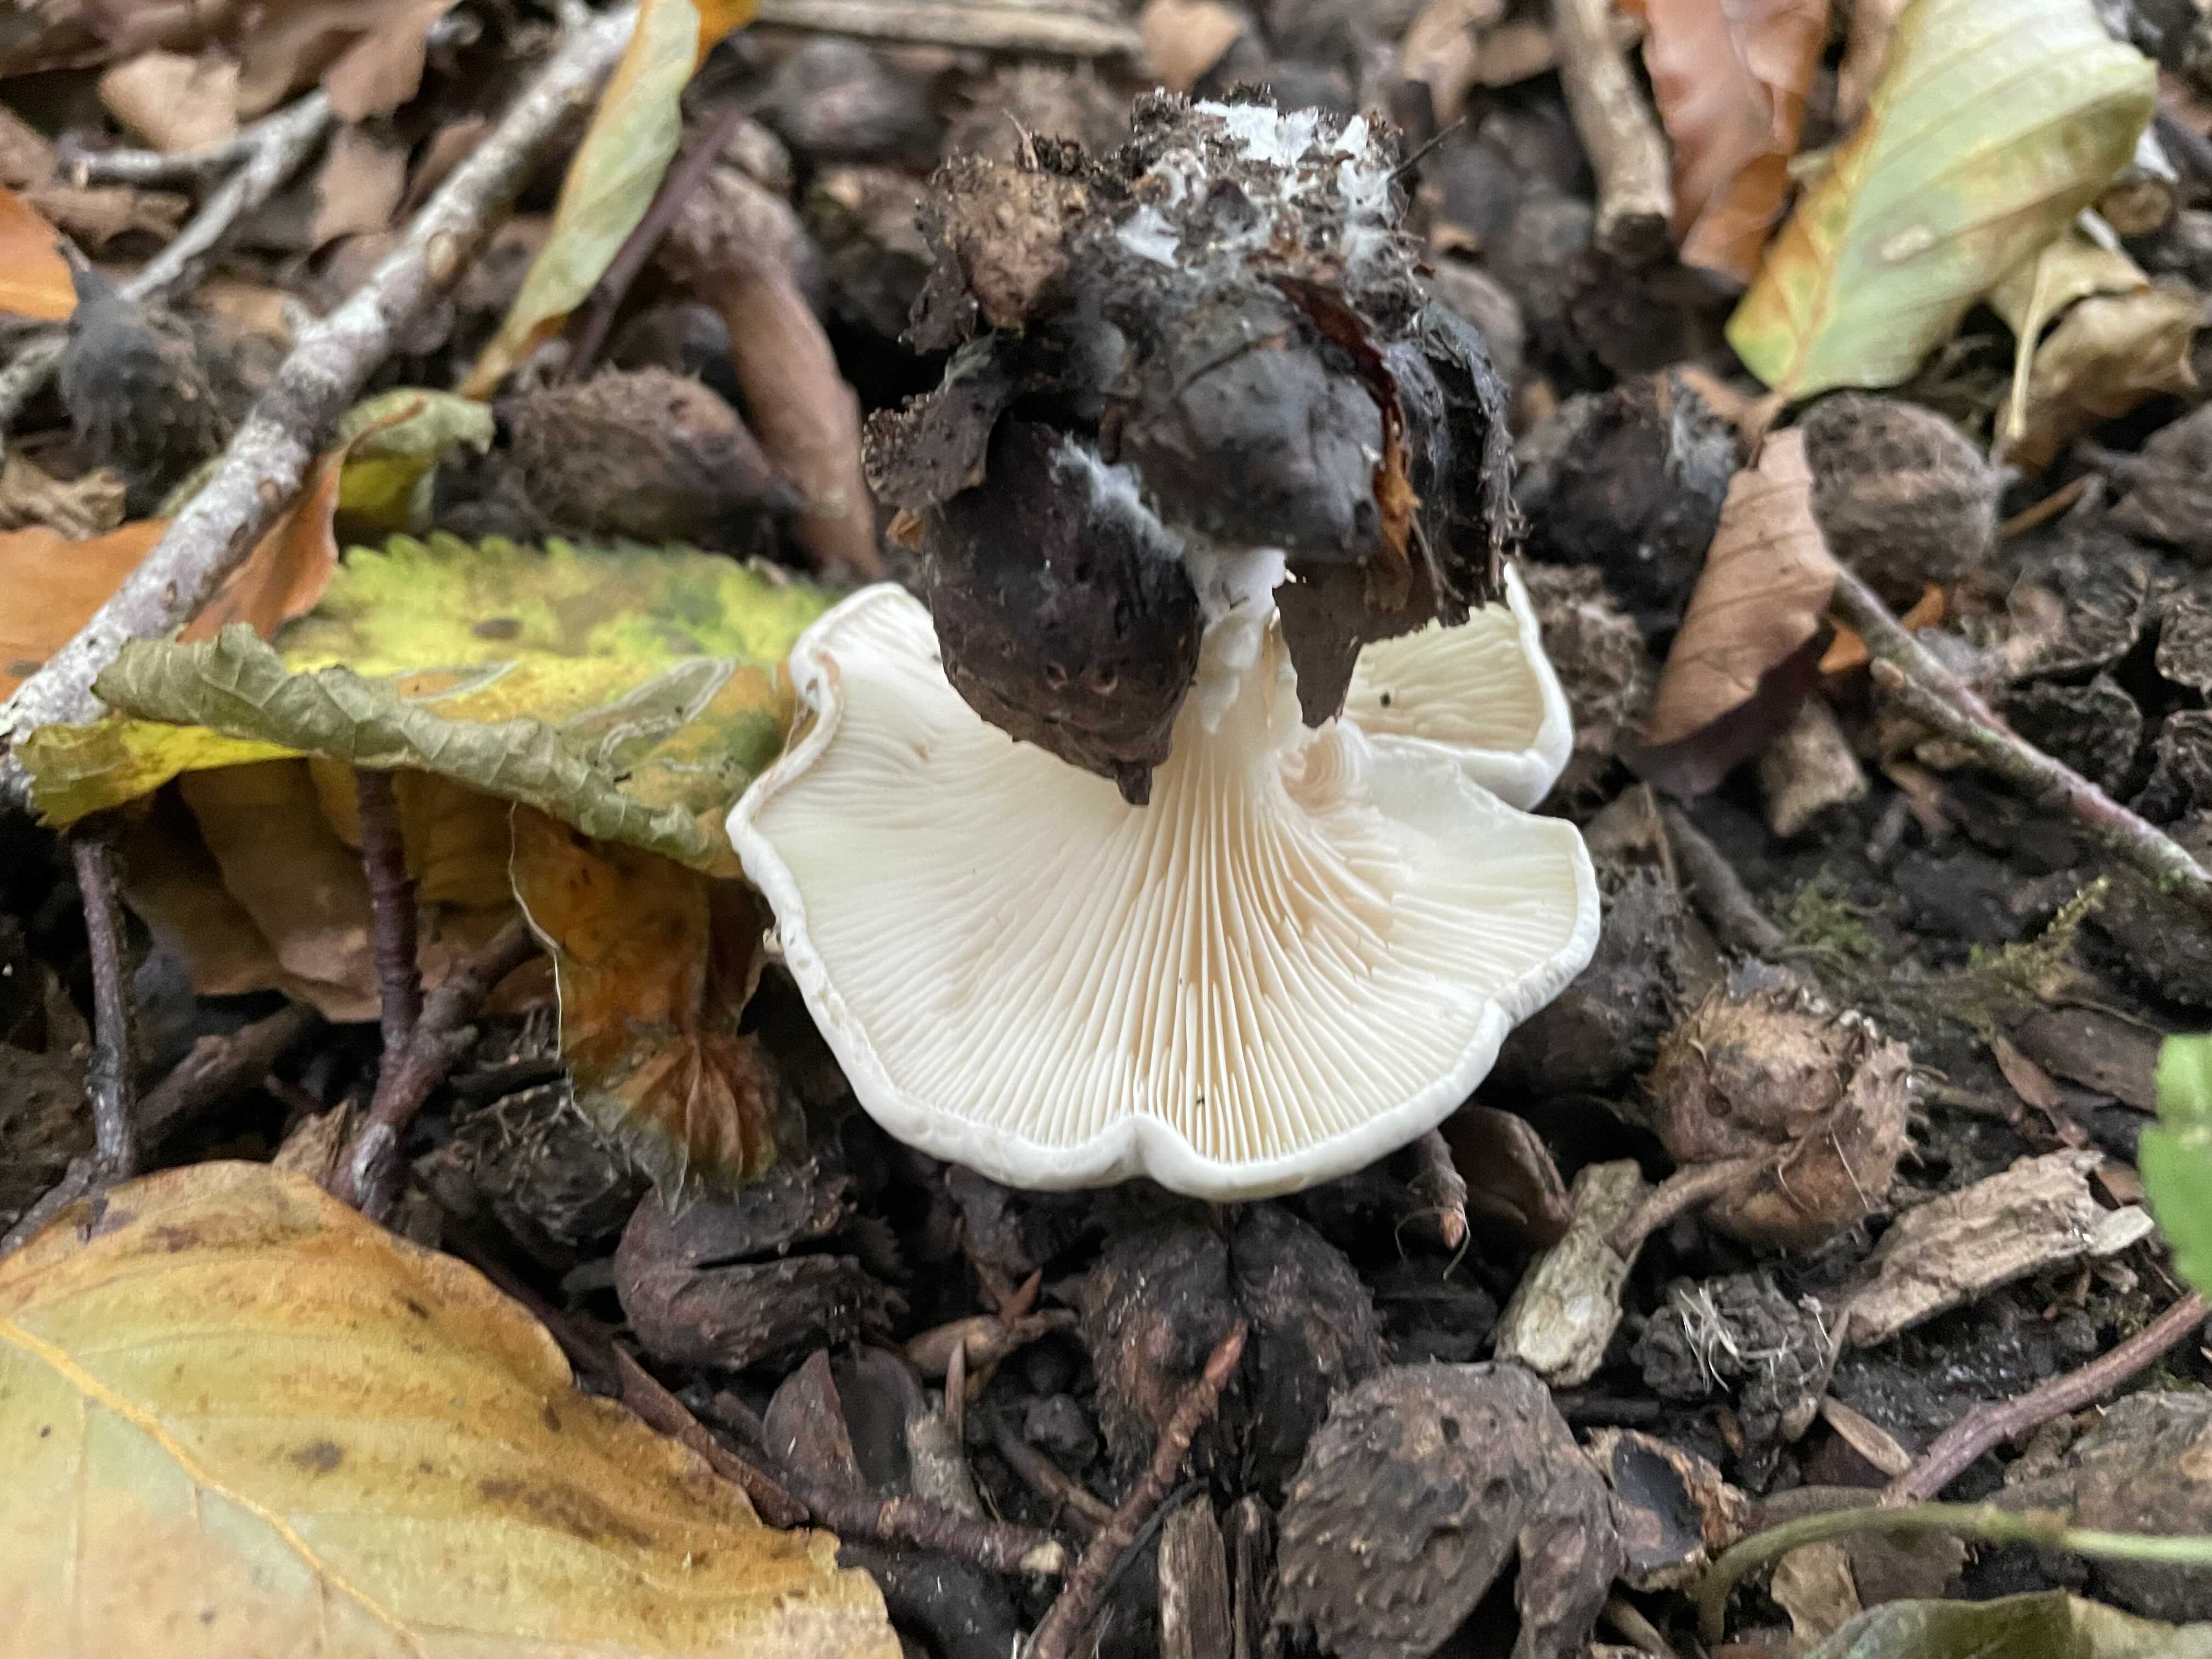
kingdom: Fungi
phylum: Basidiomycota
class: Agaricomycetes
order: Agaricales
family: Entolomataceae
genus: Clitopilus
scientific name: Clitopilus prunulus
